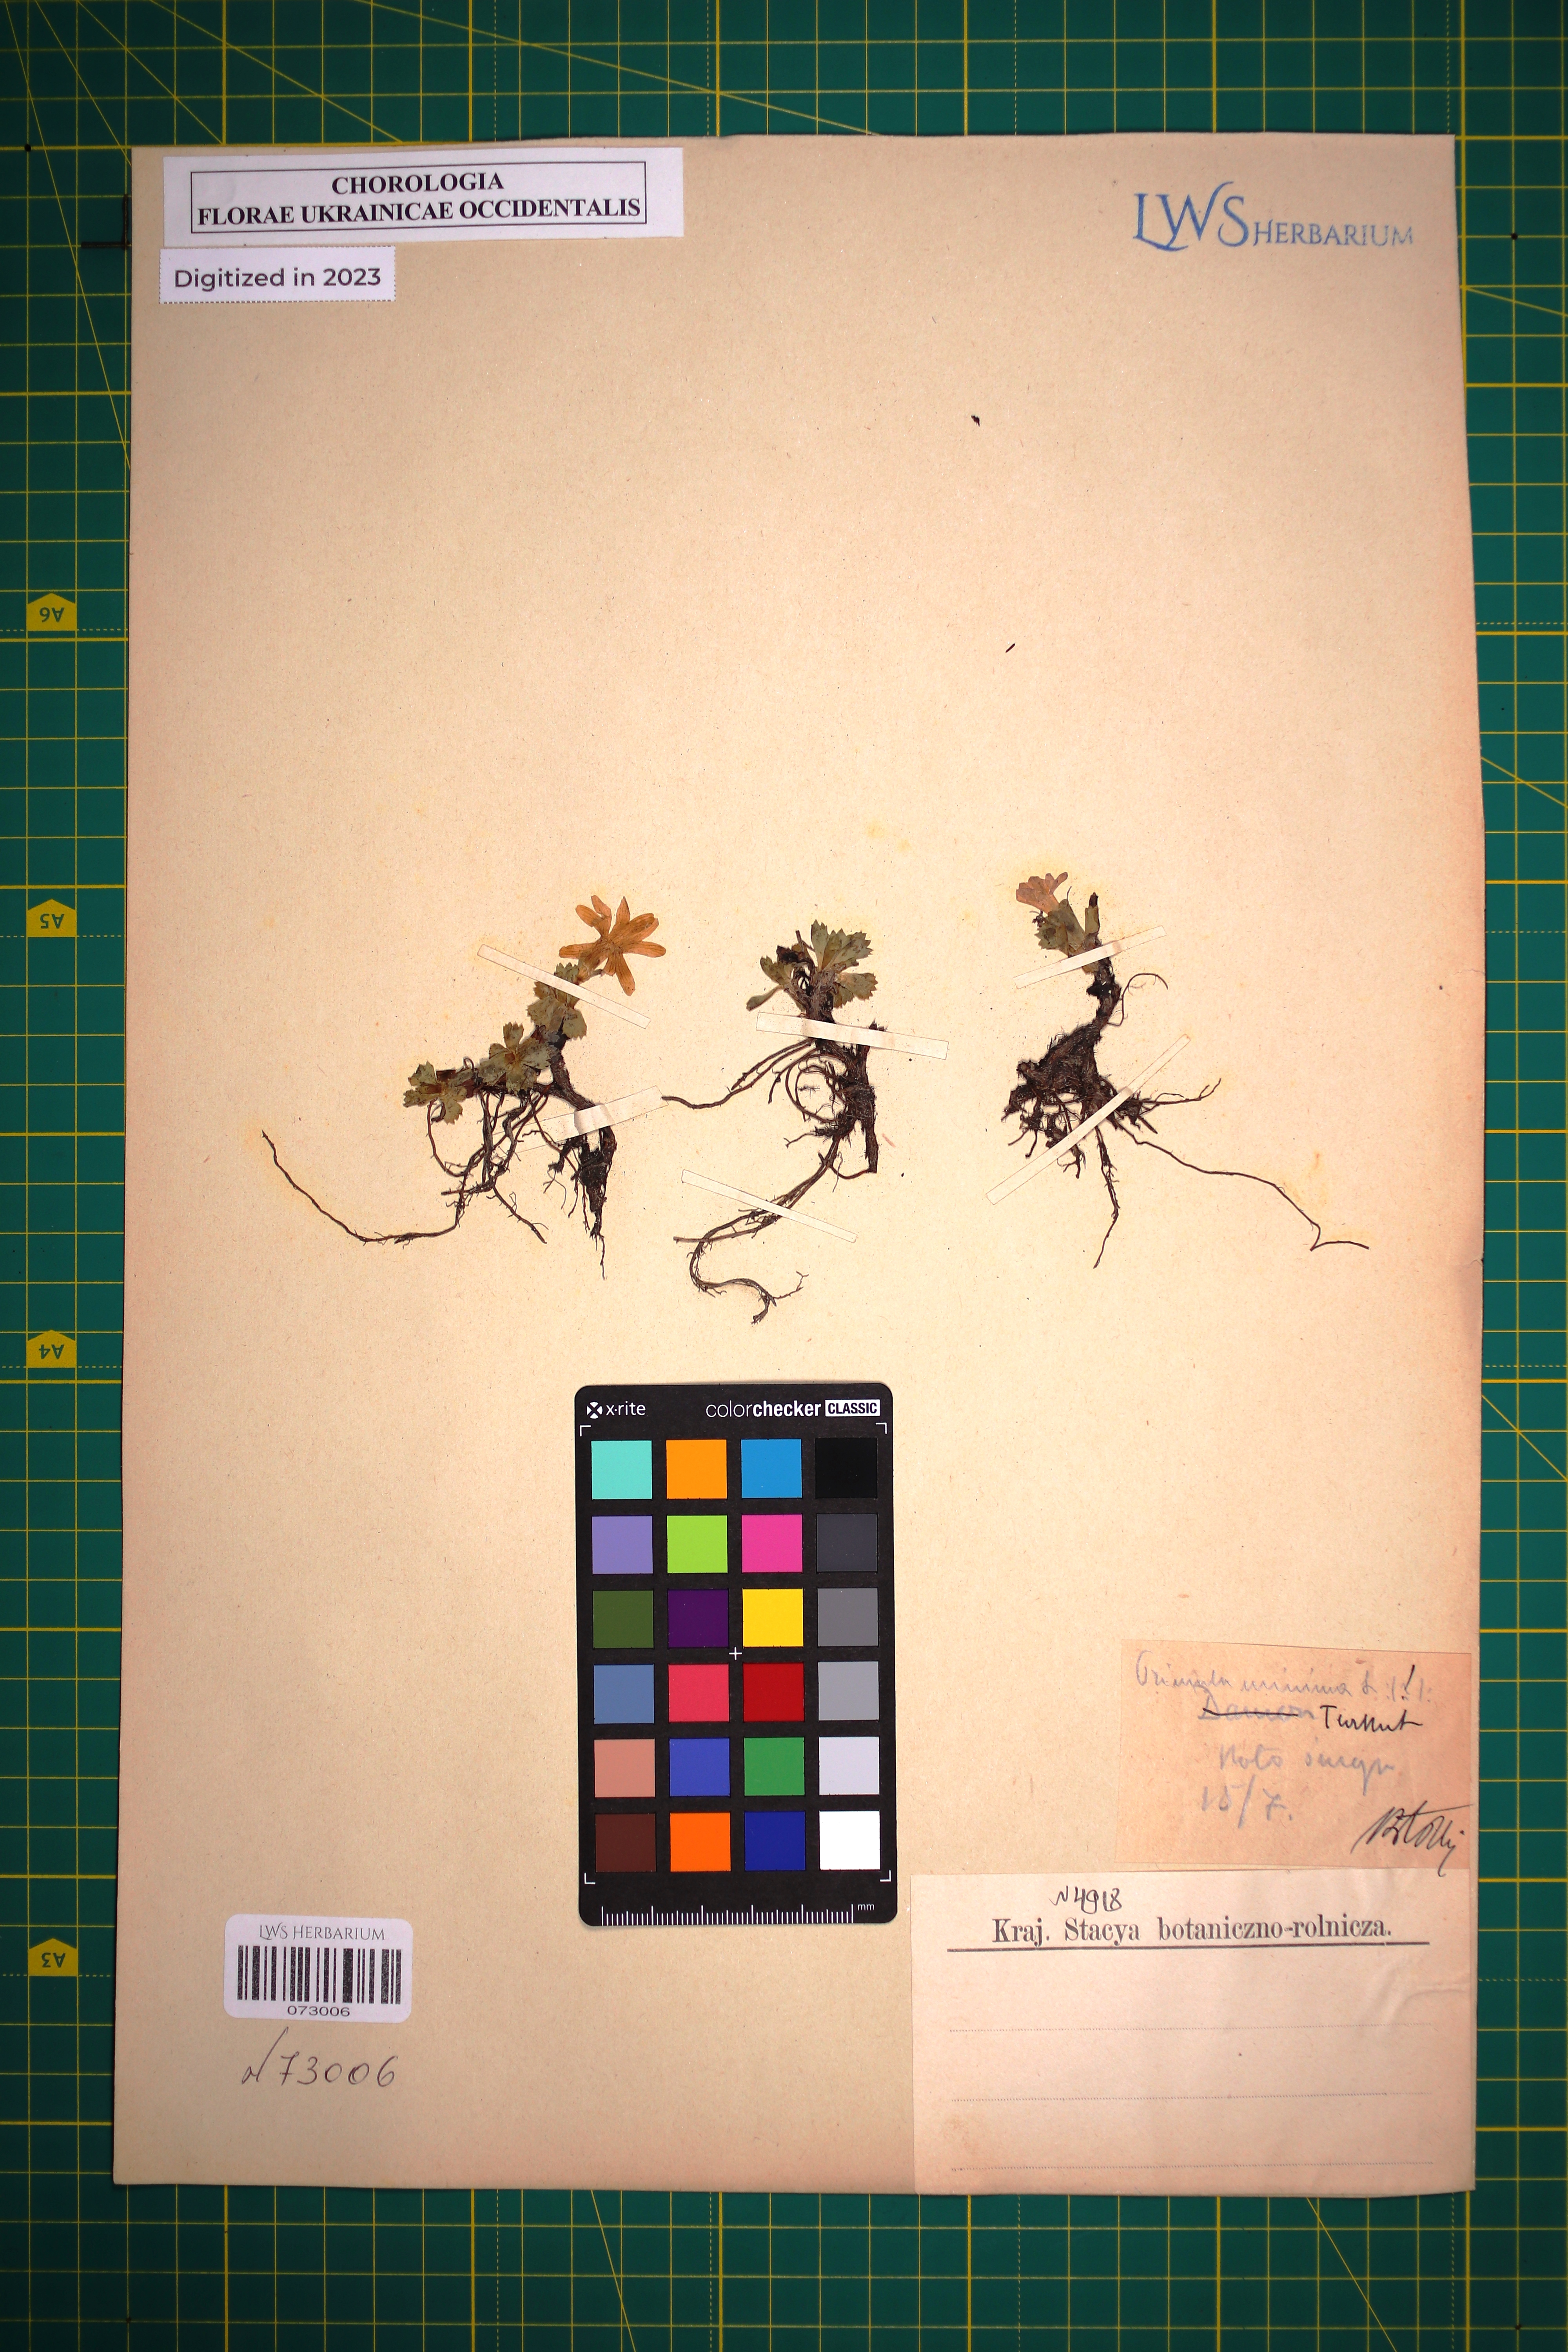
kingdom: Plantae
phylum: Tracheophyta
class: Magnoliopsida
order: Ericales
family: Primulaceae
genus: Primula
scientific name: Primula minima
